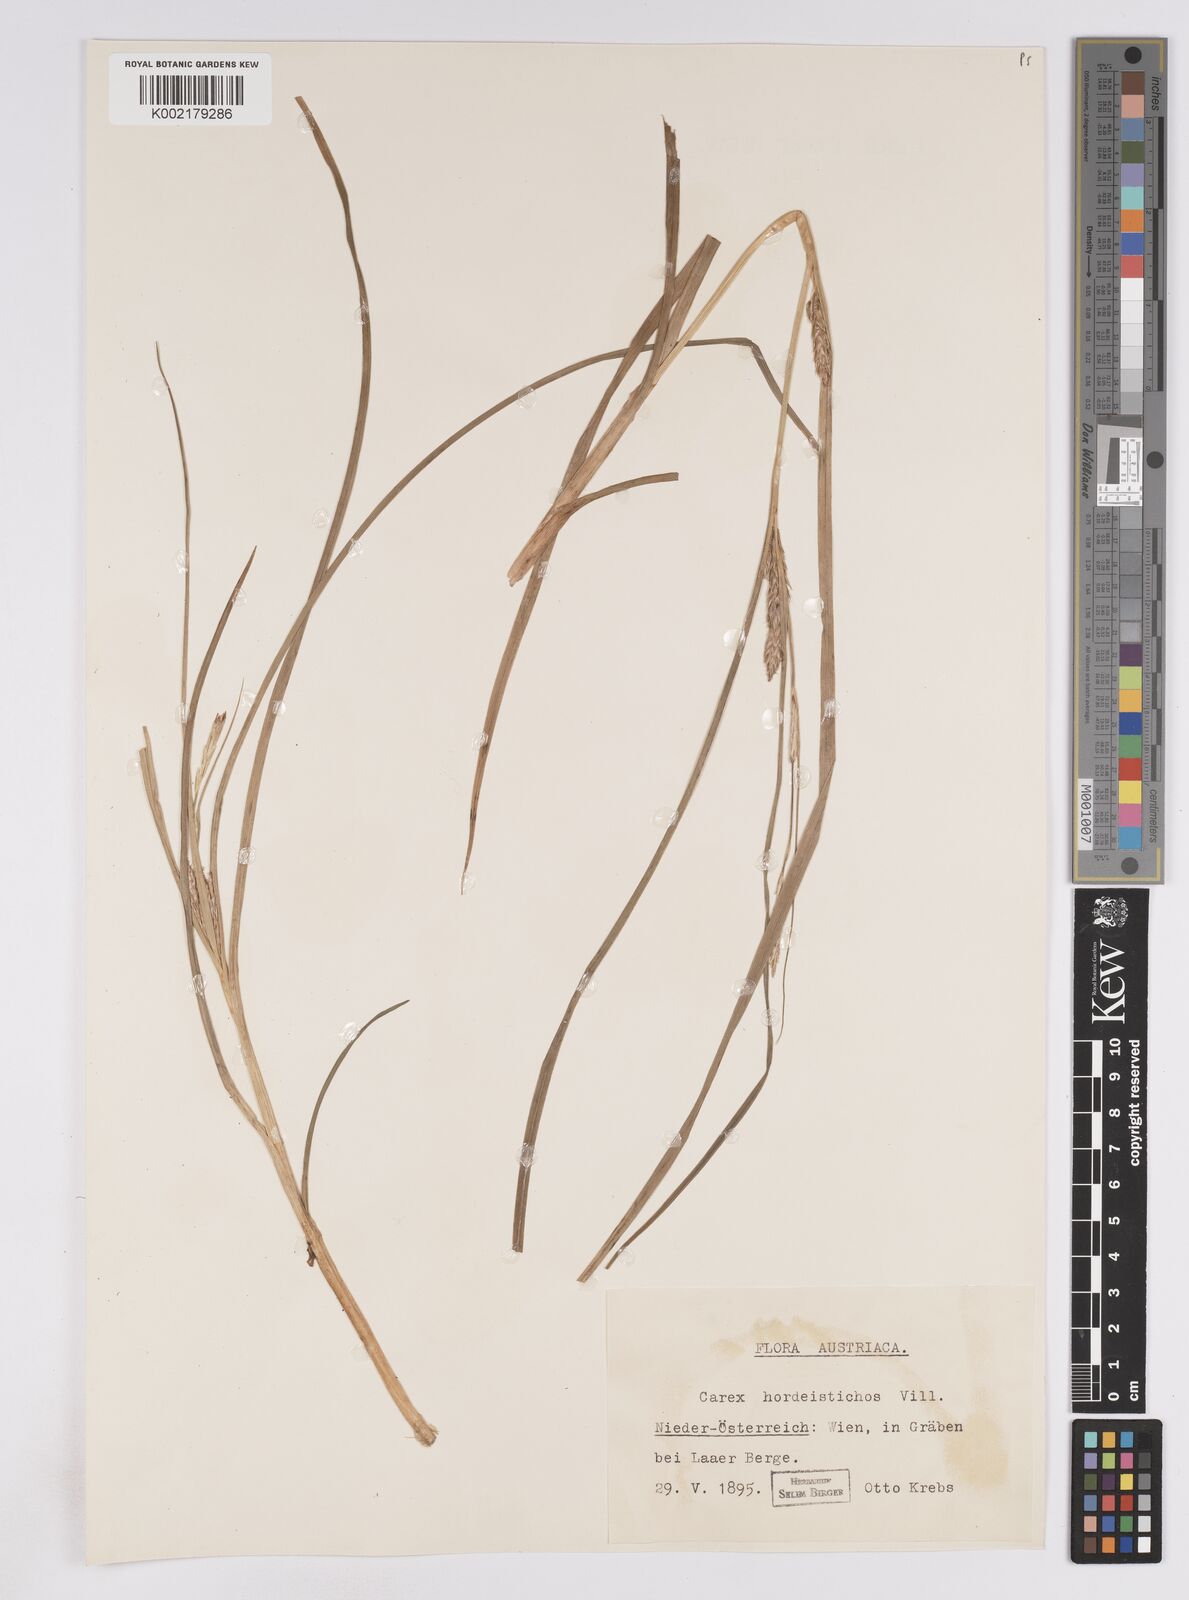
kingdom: Plantae
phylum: Tracheophyta
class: Liliopsida
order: Poales
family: Cyperaceae
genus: Carex
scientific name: Carex hordeistichos
